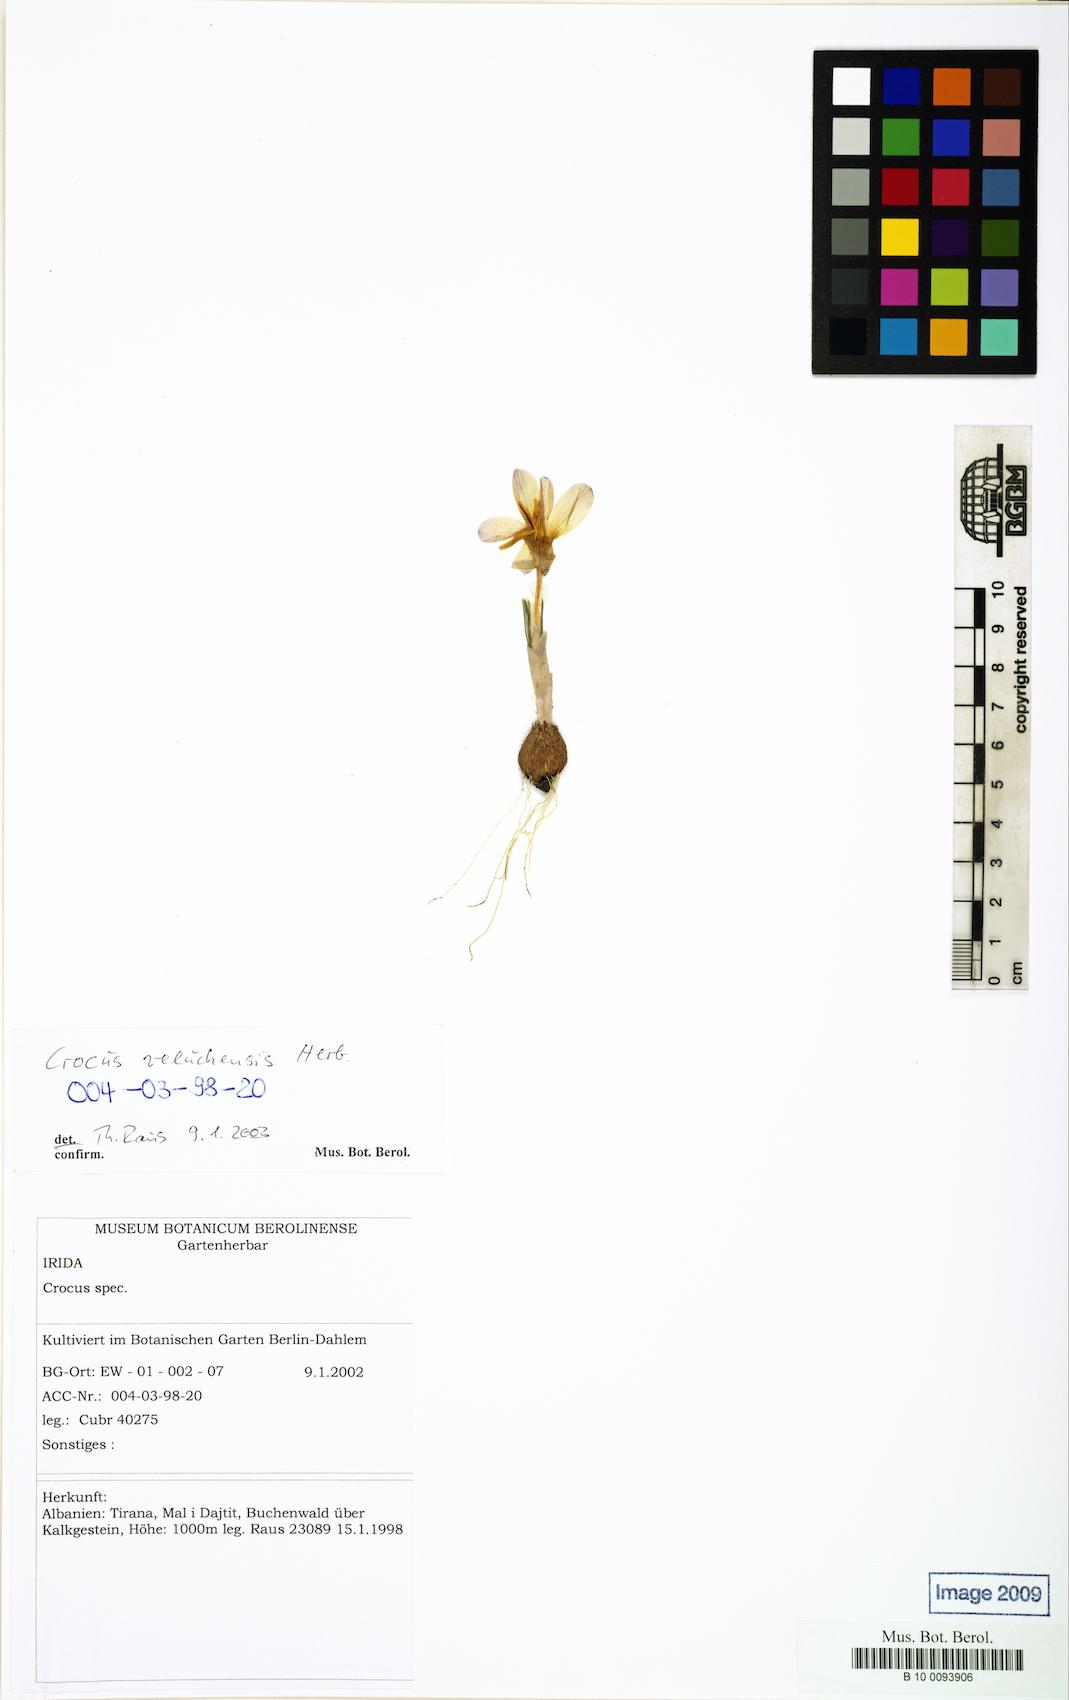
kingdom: Plantae
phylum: Tracheophyta
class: Liliopsida
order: Asparagales
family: Iridaceae
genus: Crocus
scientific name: Crocus veluchensis
